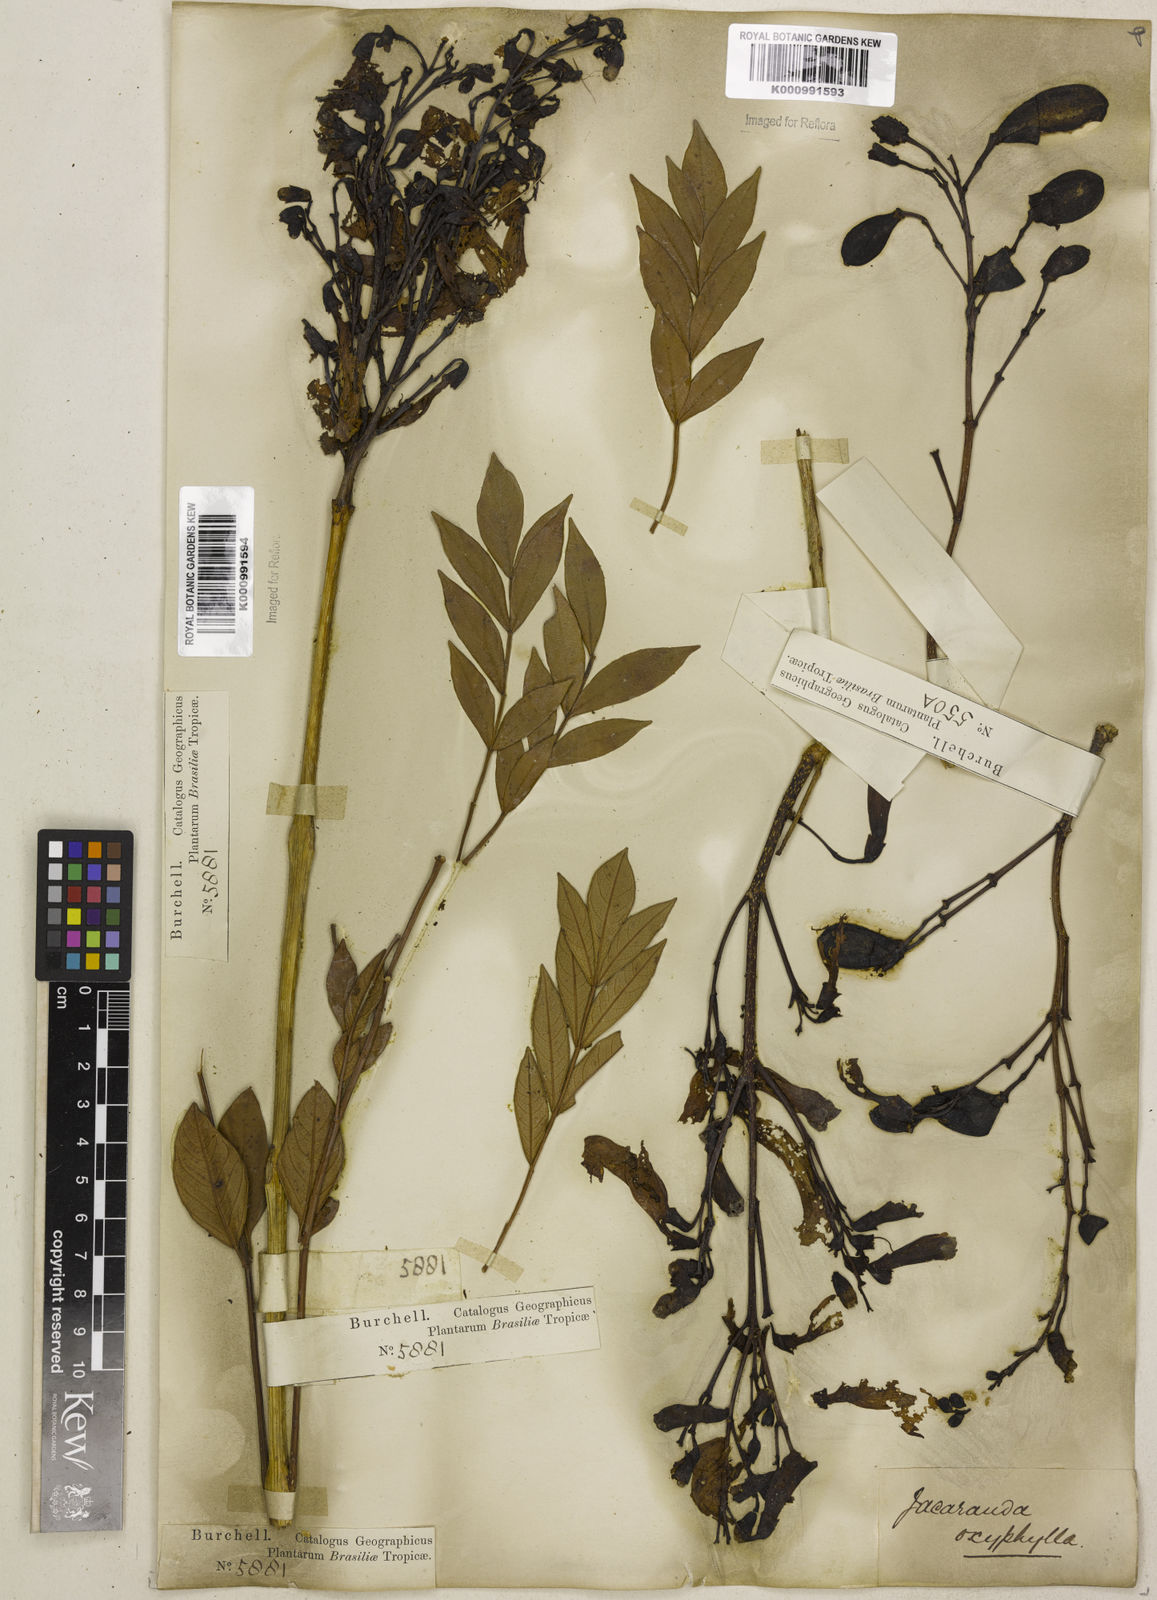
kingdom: Plantae
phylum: Tracheophyta
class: Magnoliopsida
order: Lamiales
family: Bignoniaceae
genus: Jacaranda
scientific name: Jacaranda caroba
